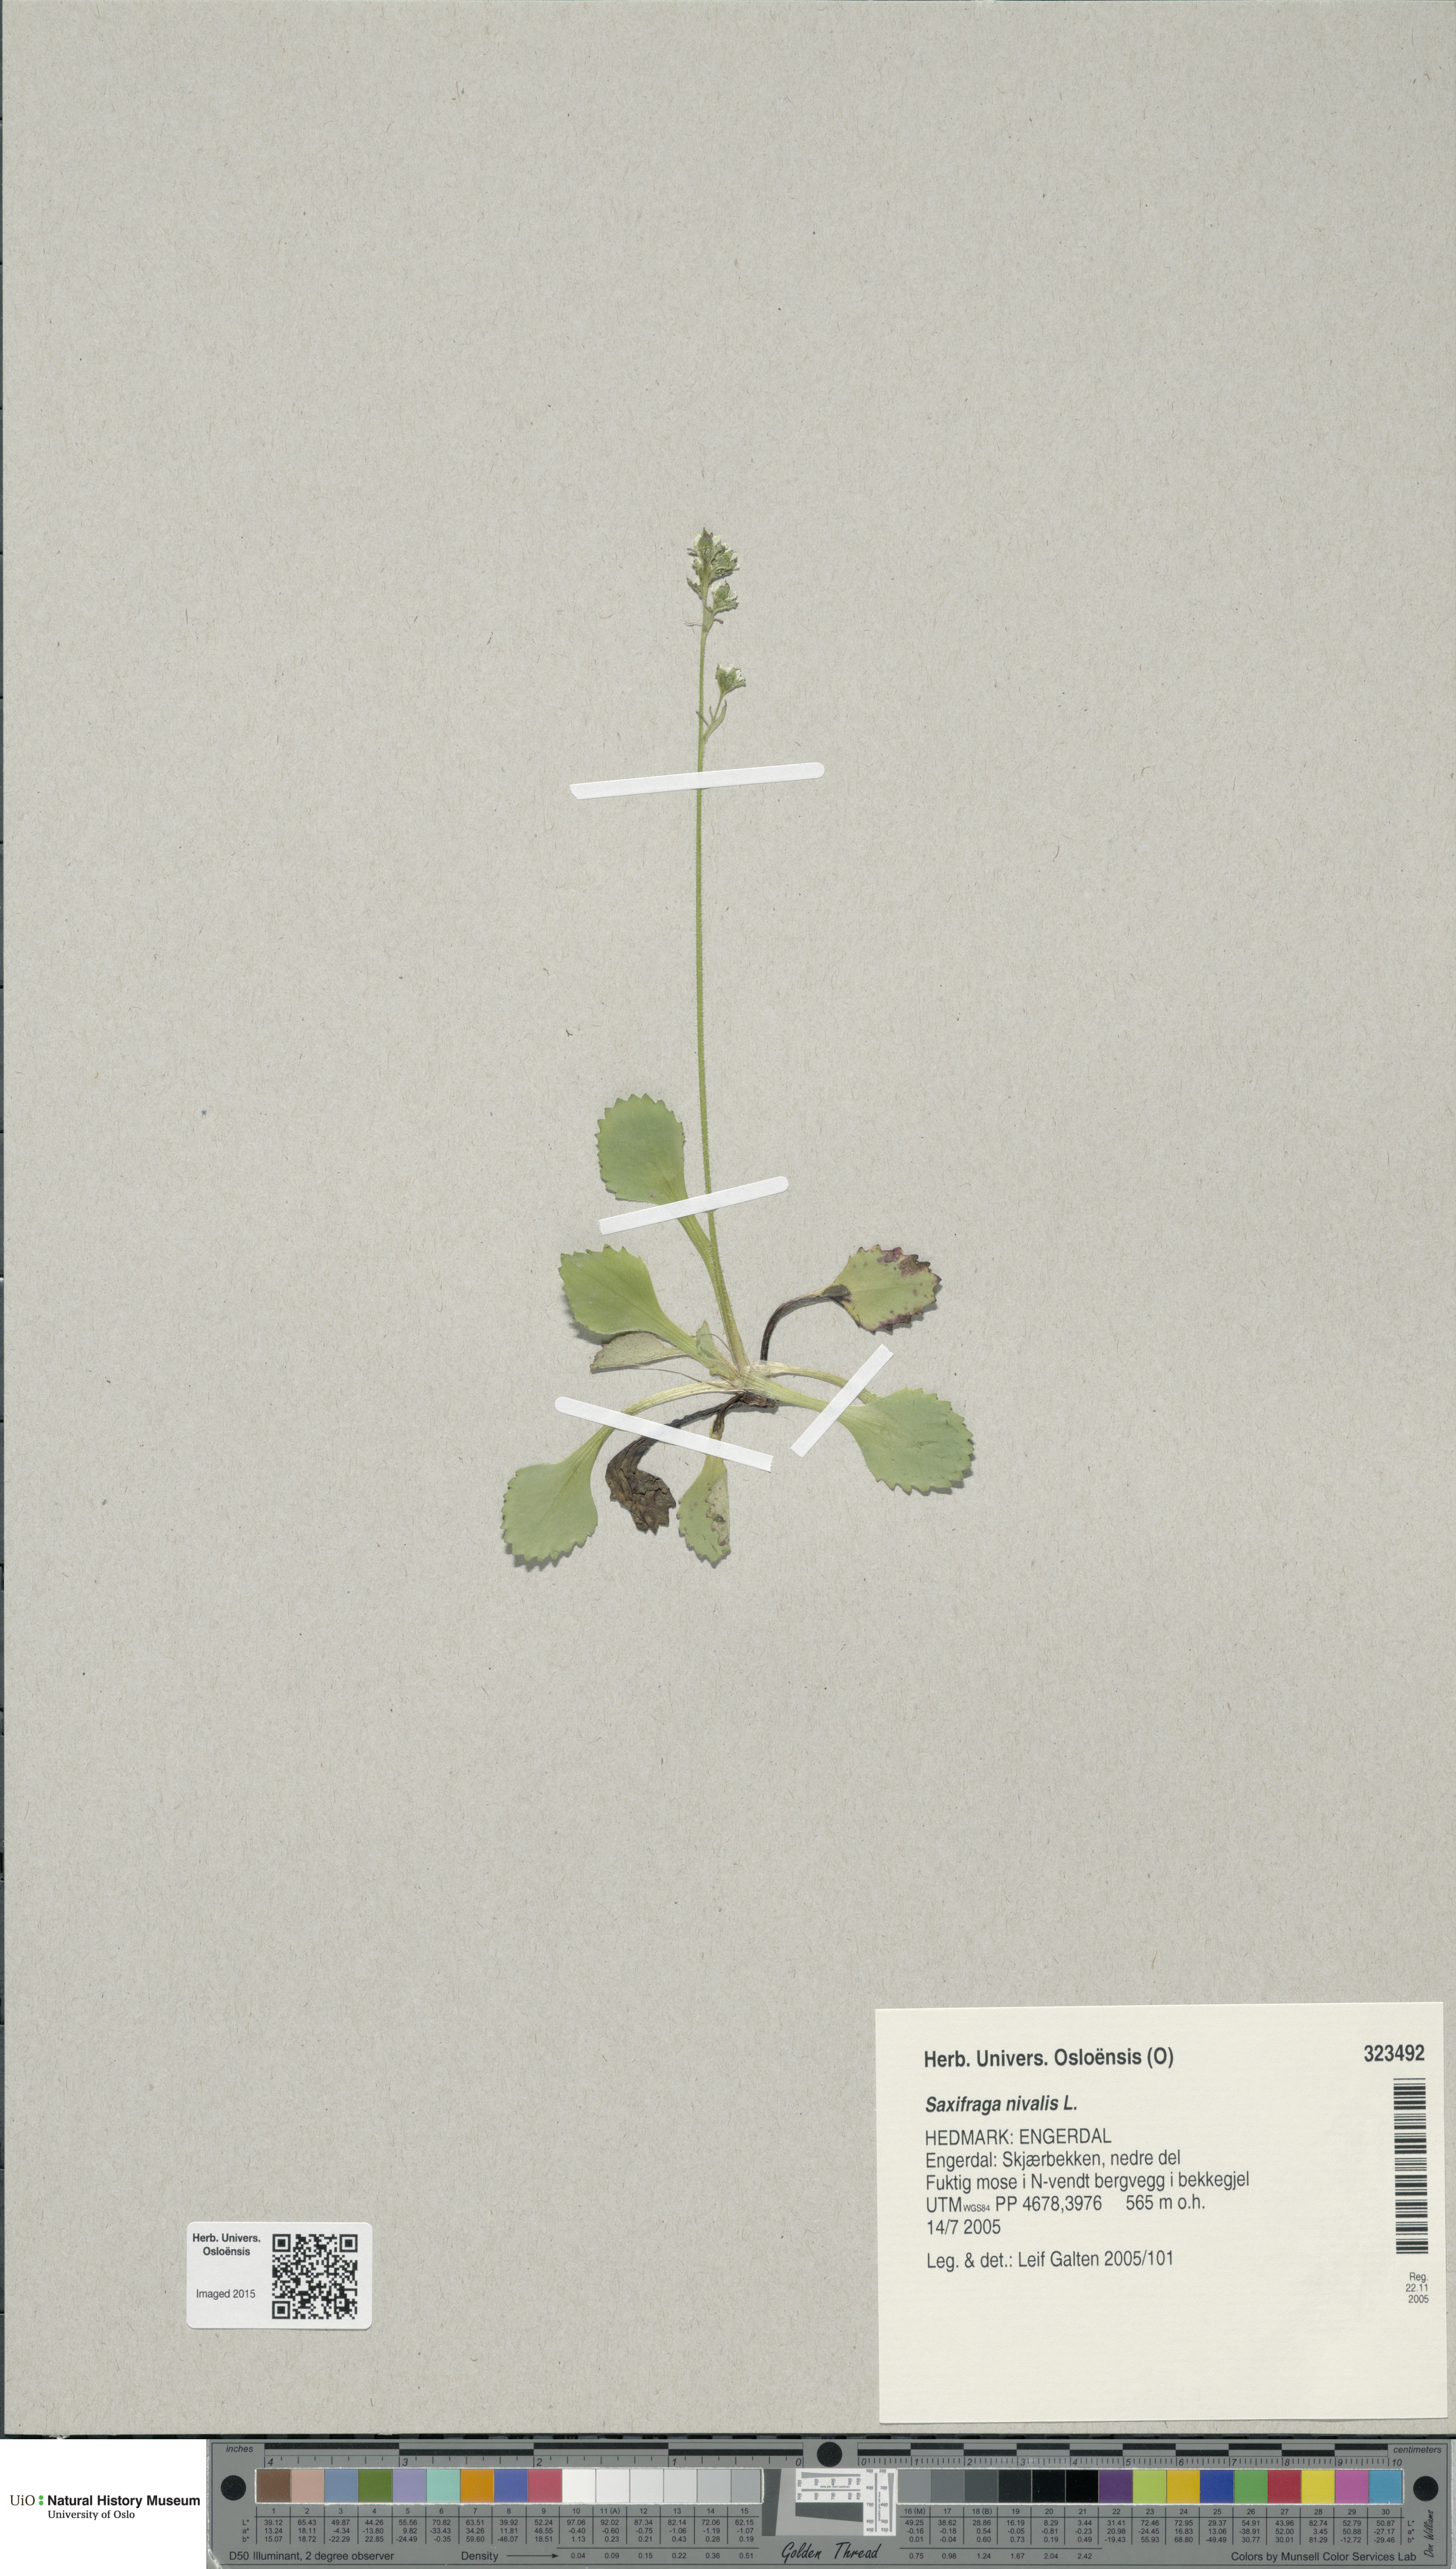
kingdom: Plantae
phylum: Tracheophyta
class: Magnoliopsida
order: Saxifragales
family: Saxifragaceae
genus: Micranthes
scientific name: Micranthes nivalis
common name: Alpine saxifrage
